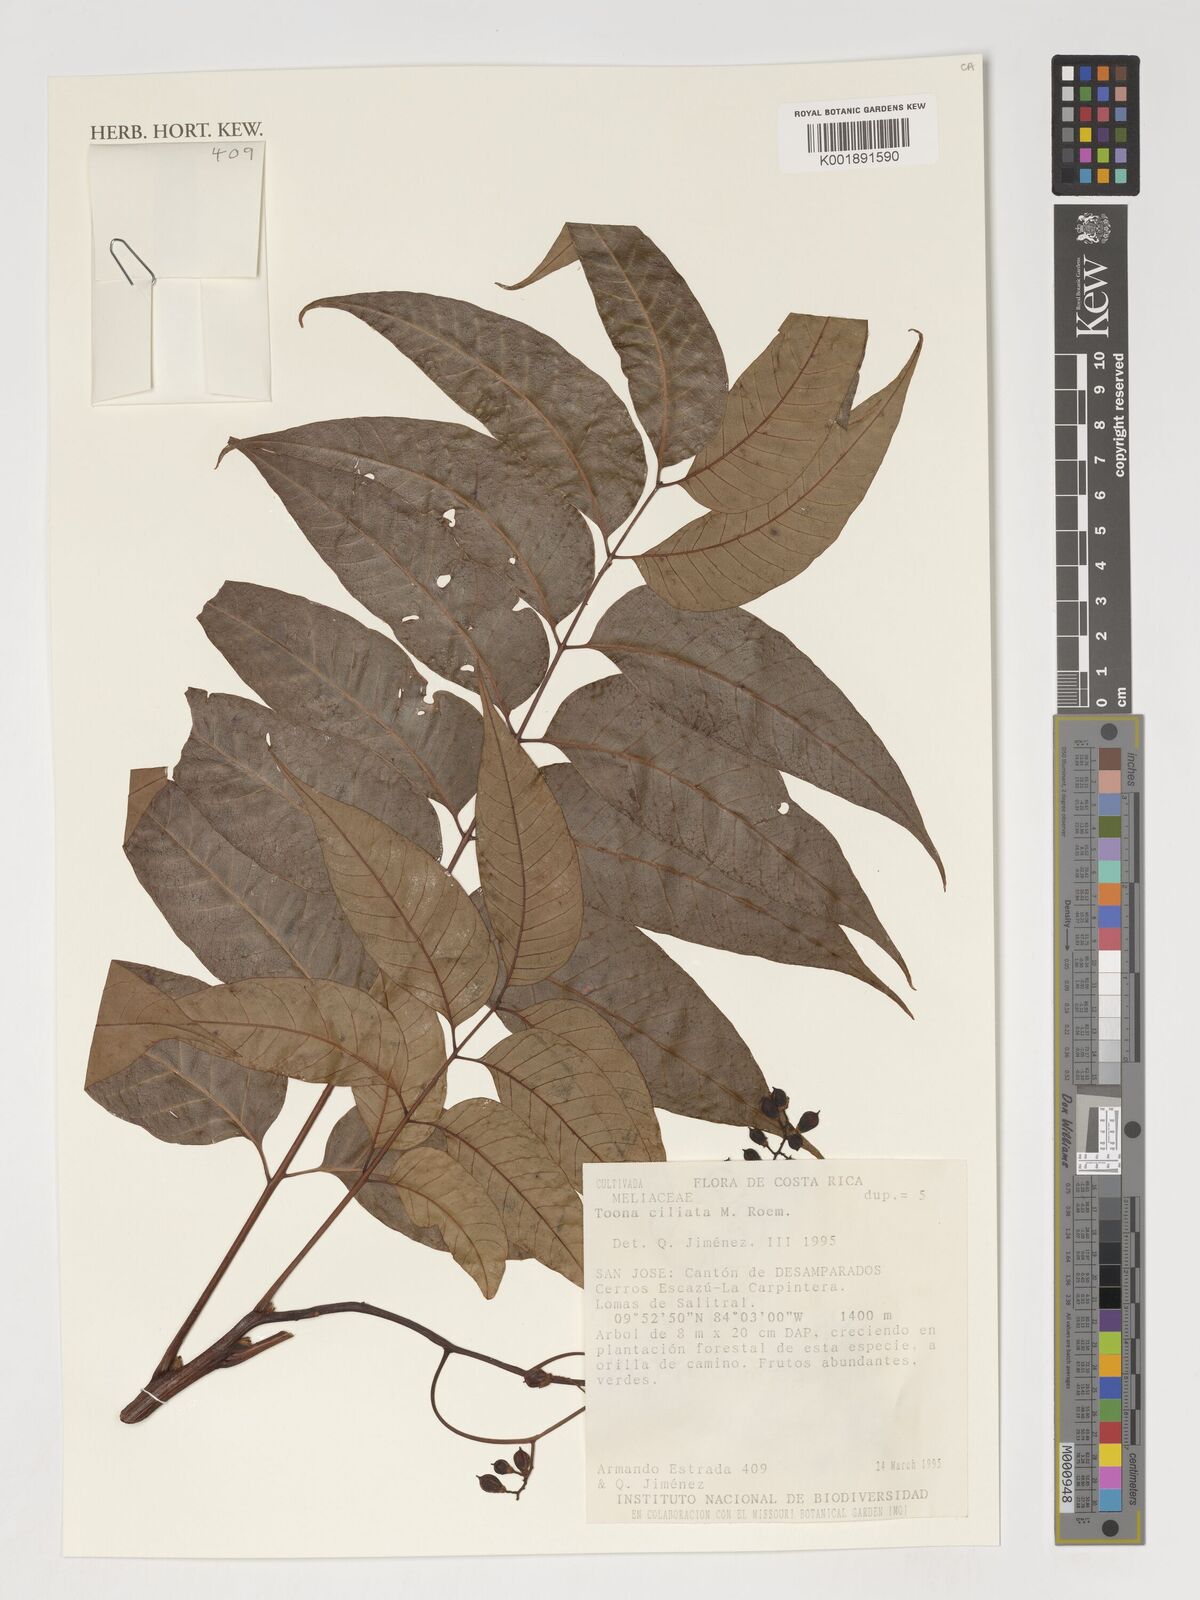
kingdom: Plantae
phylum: Tracheophyta
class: Magnoliopsida
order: Sapindales
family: Meliaceae
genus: Toona
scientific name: Toona ciliata
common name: Australian redcedar
